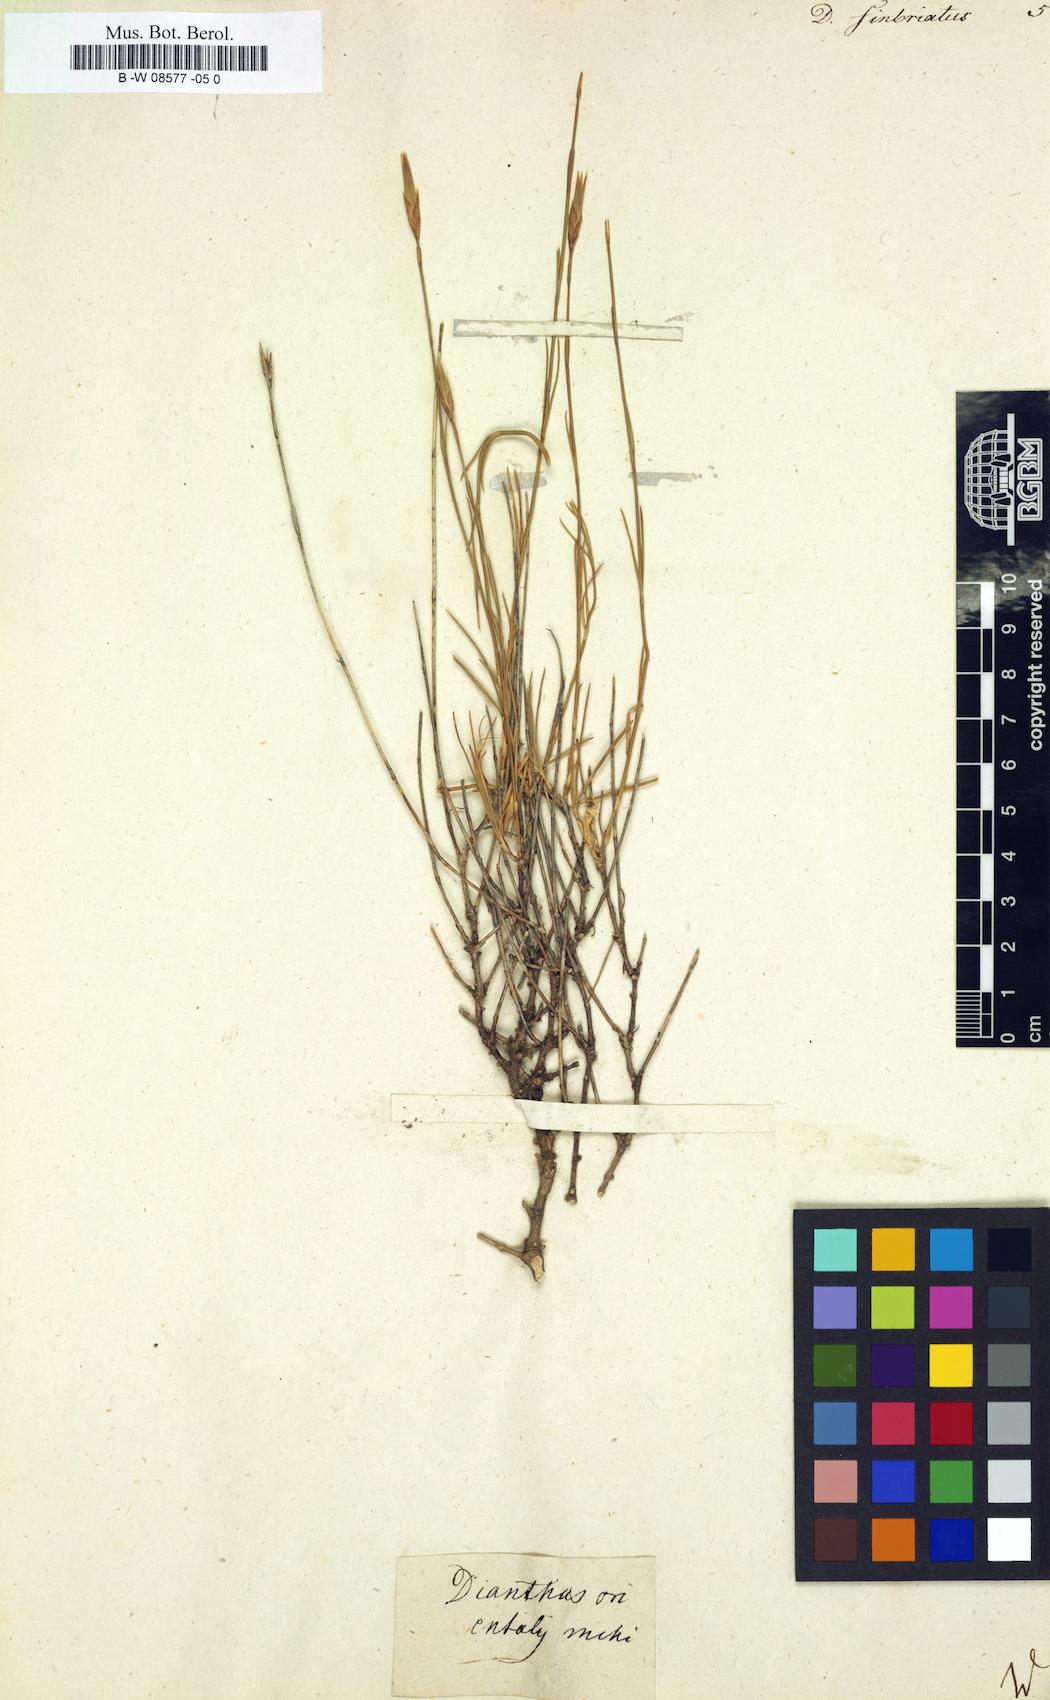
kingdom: Plantae
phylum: Tracheophyta
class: Magnoliopsida
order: Caryophyllales
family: Caryophyllaceae
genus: Dianthus
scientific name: Dianthus
